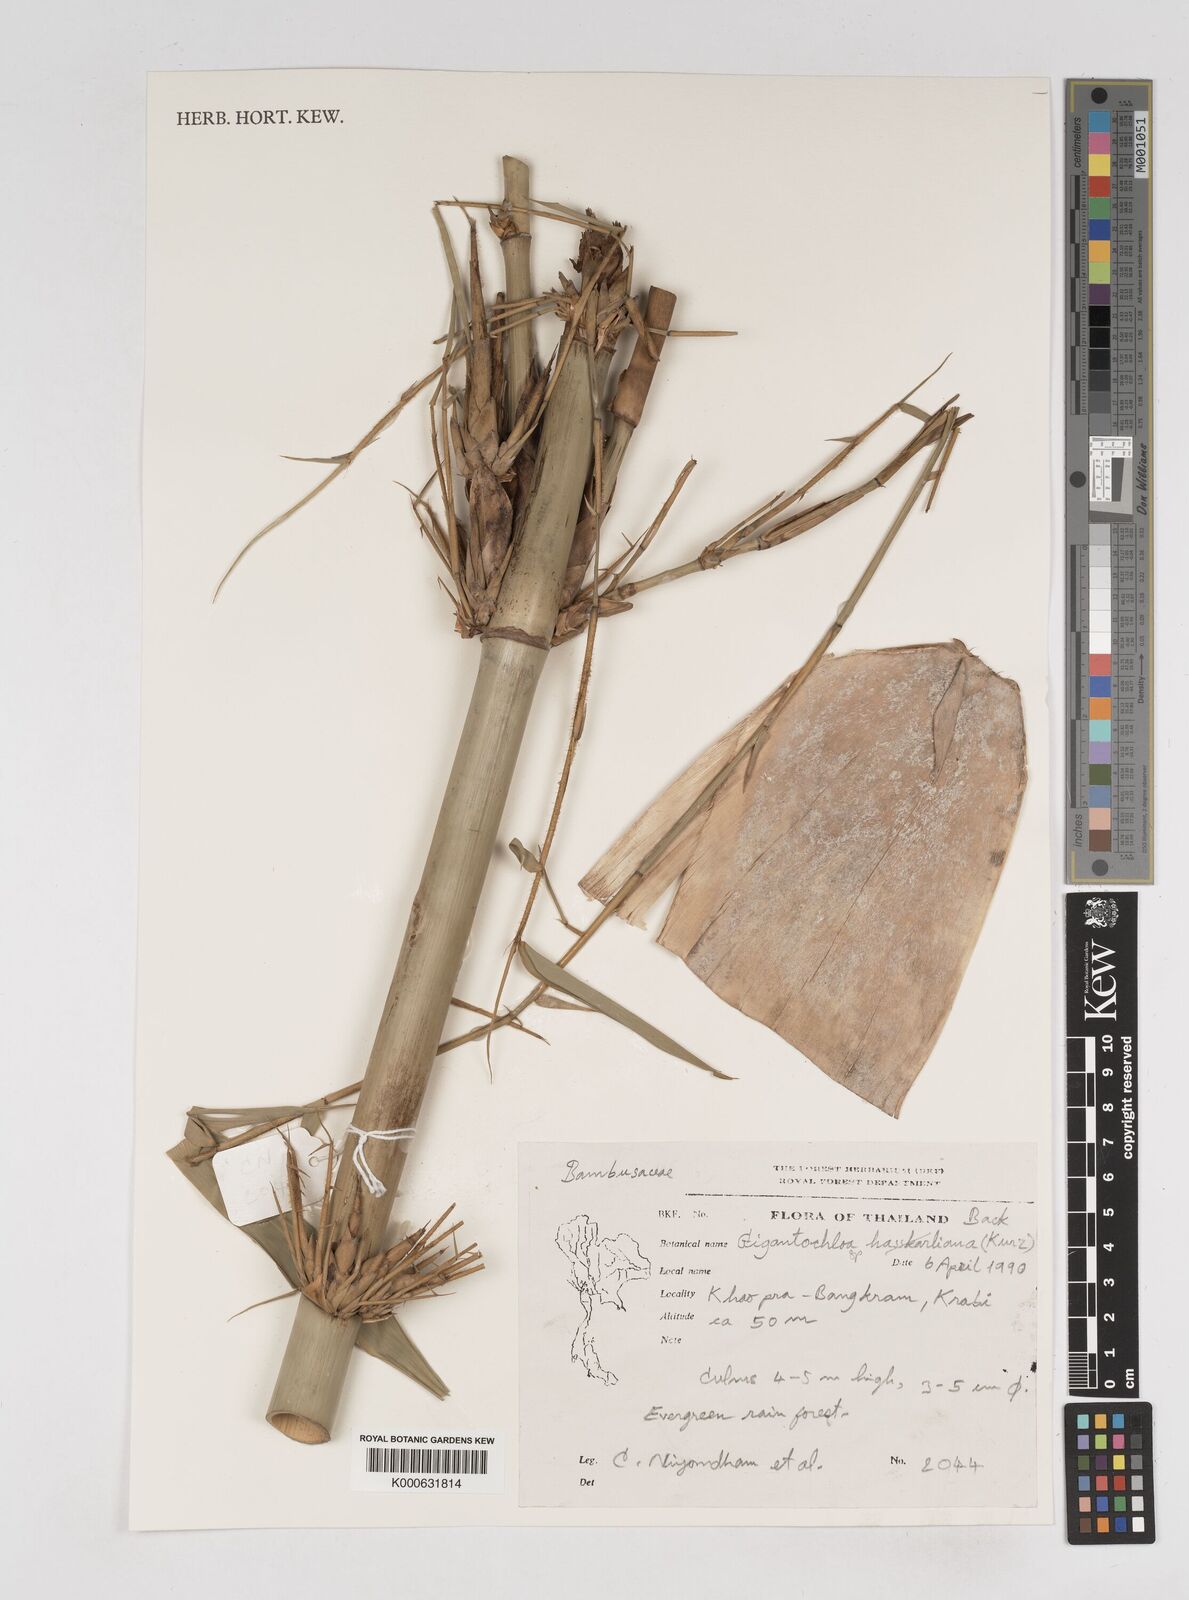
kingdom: Plantae
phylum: Tracheophyta
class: Liliopsida
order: Poales
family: Poaceae
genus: Gigantochloa
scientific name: Gigantochloa
